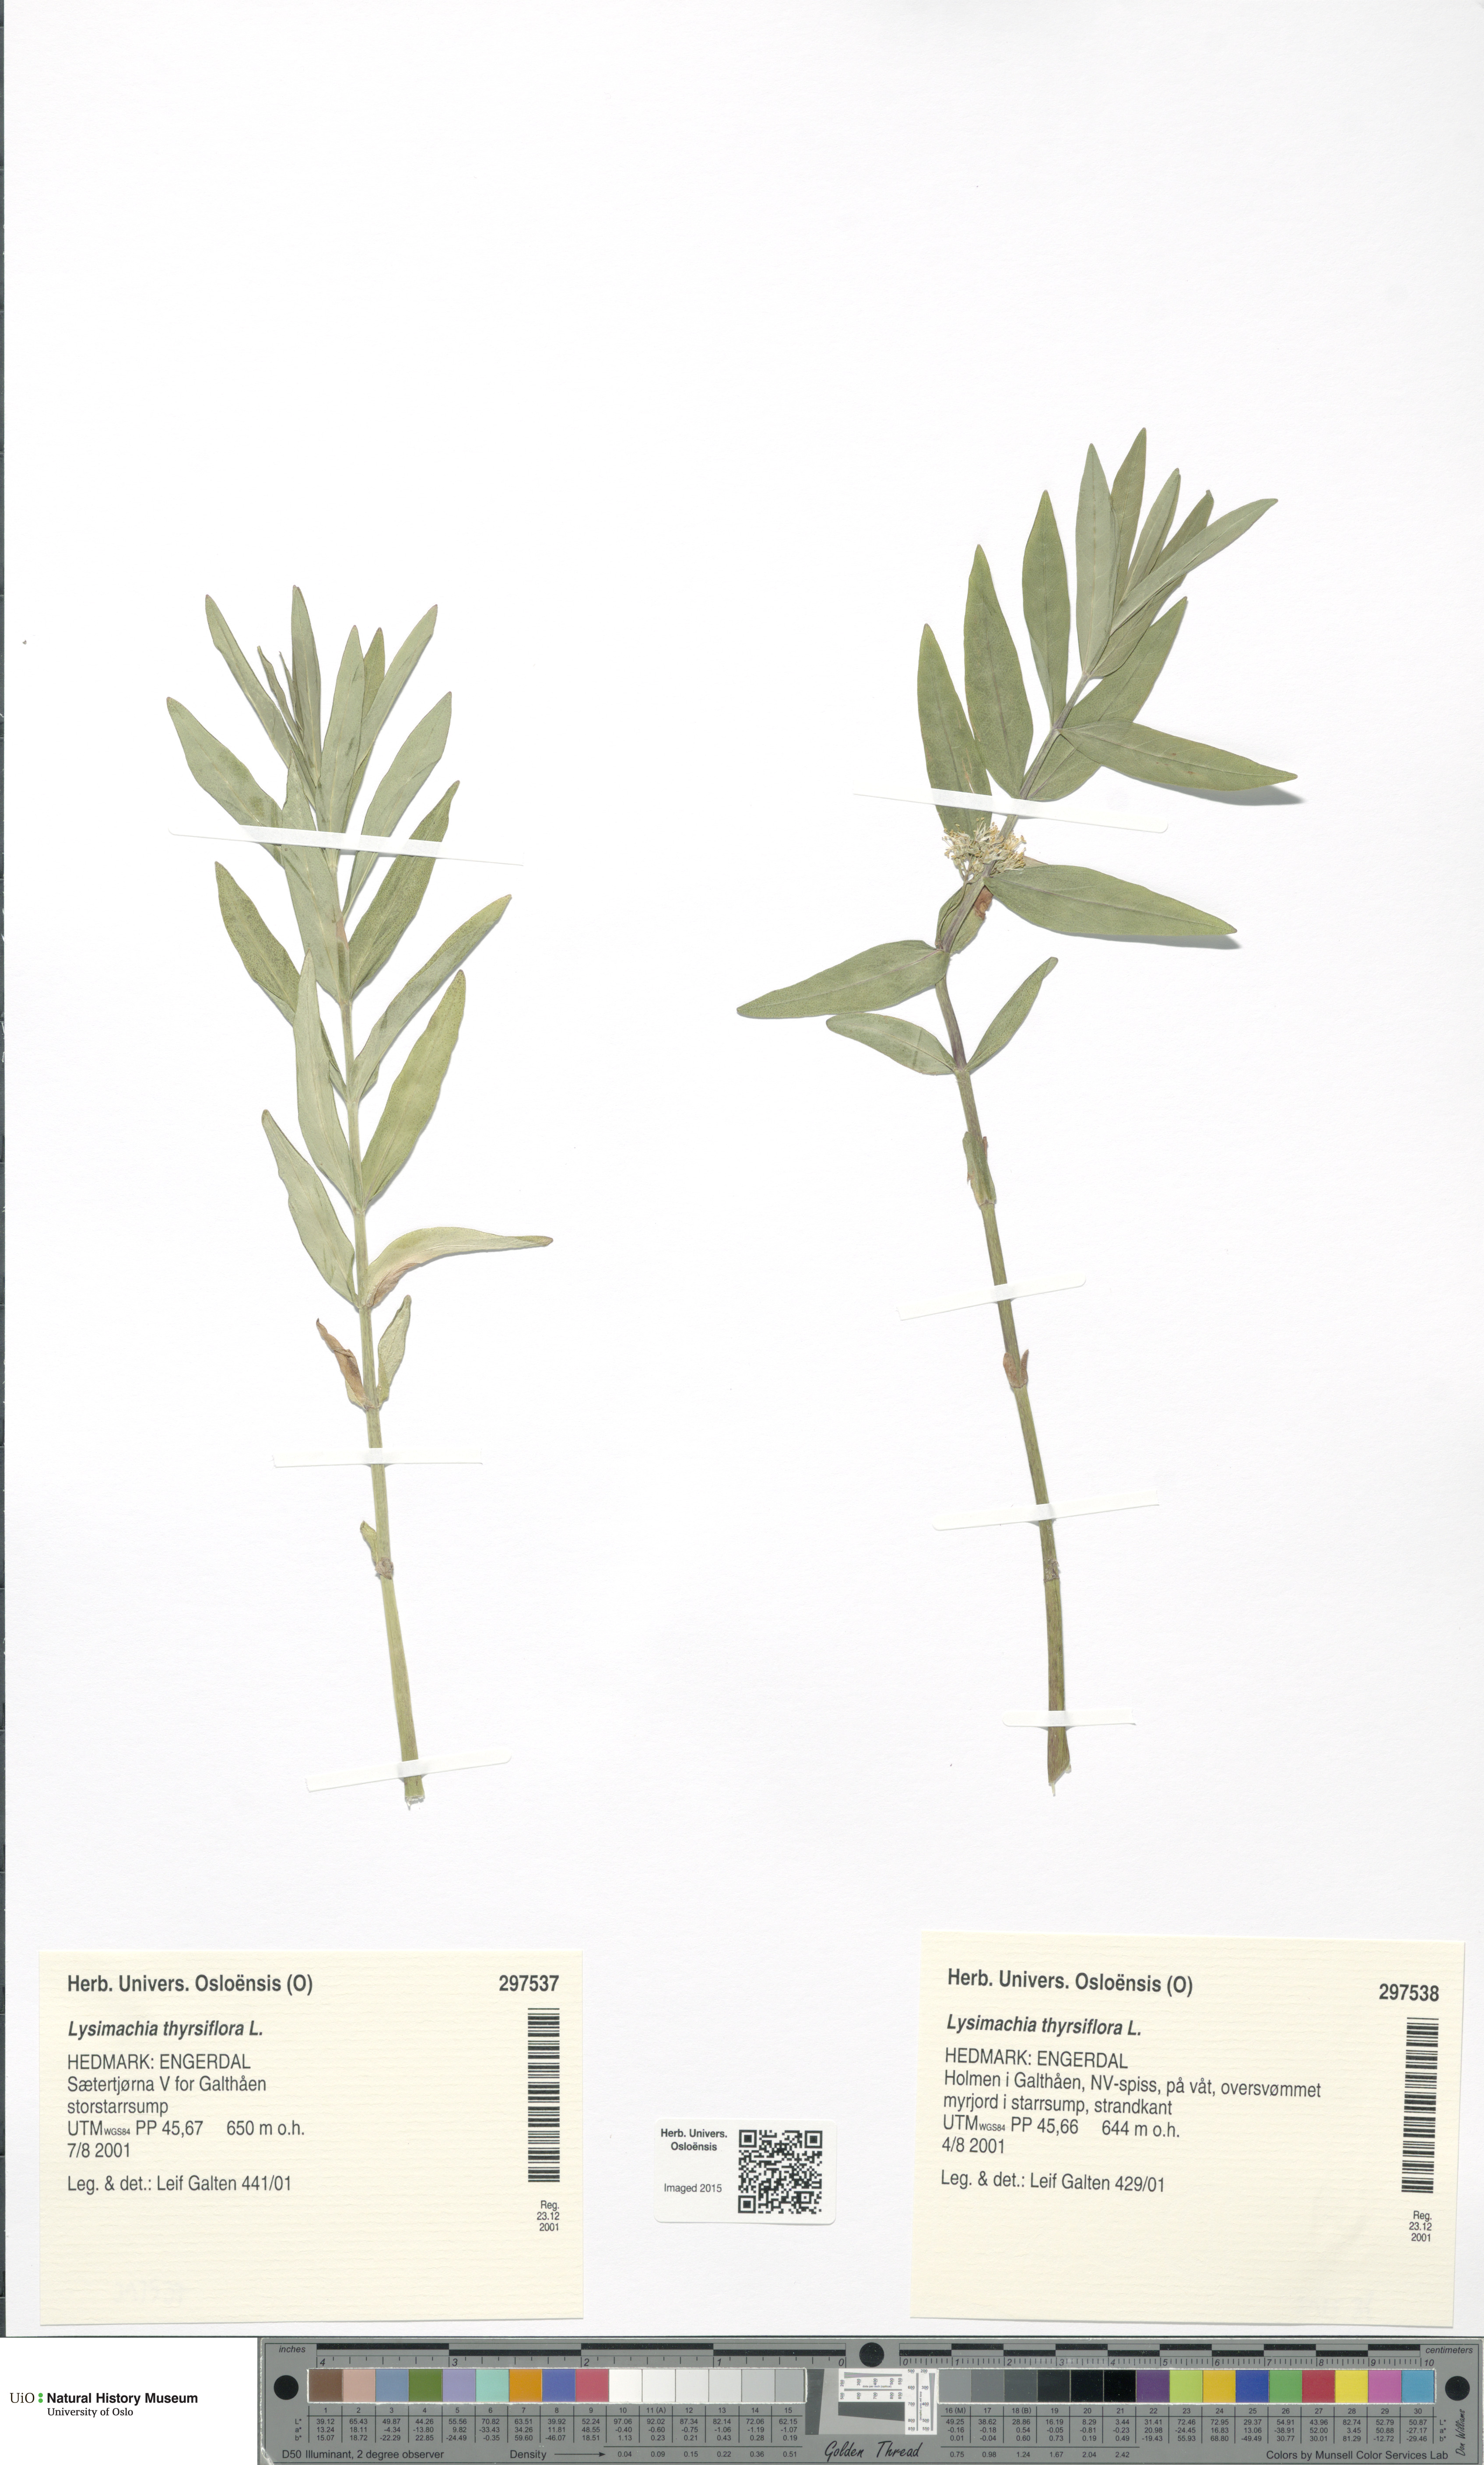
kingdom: Plantae
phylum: Tracheophyta
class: Magnoliopsida
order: Ericales
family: Primulaceae
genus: Lysimachia
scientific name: Lysimachia thyrsiflora
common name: Tufted loosestrife
